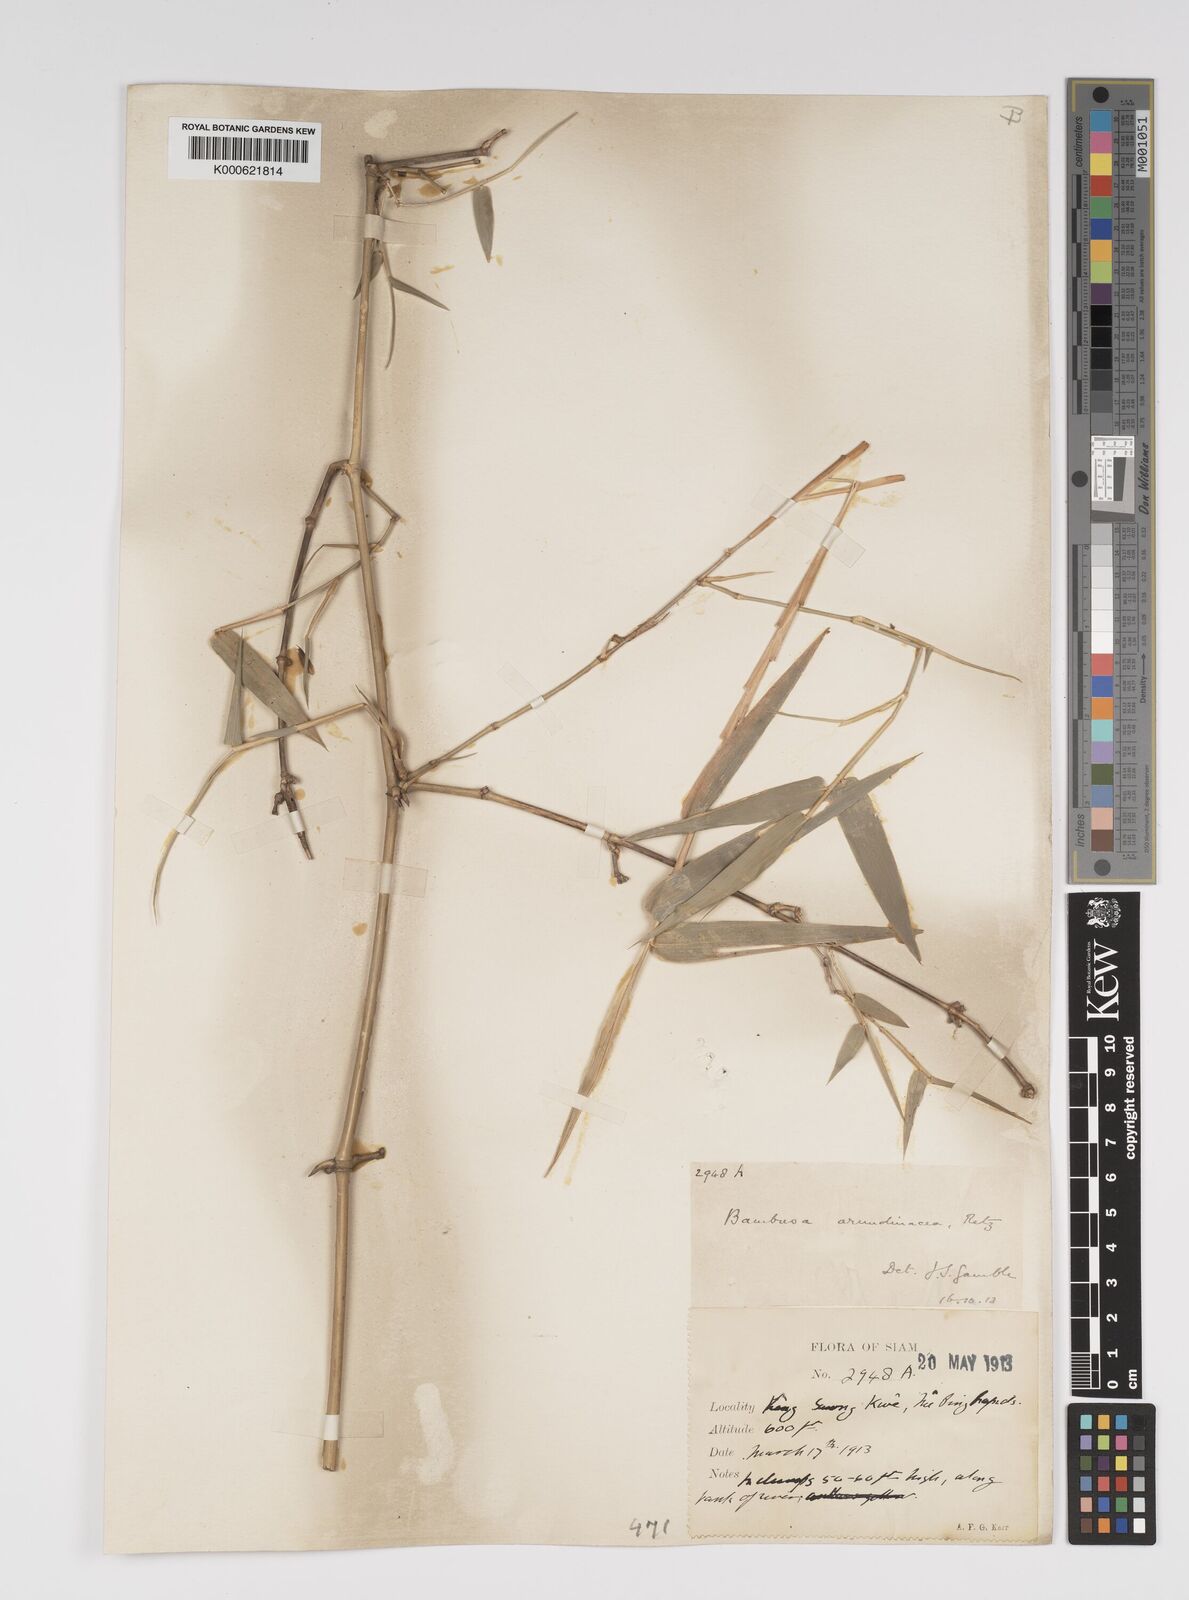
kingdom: Plantae
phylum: Tracheophyta
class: Liliopsida
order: Poales
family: Poaceae
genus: Bambusa
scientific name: Bambusa bambos
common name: Indian thorny bamboo
